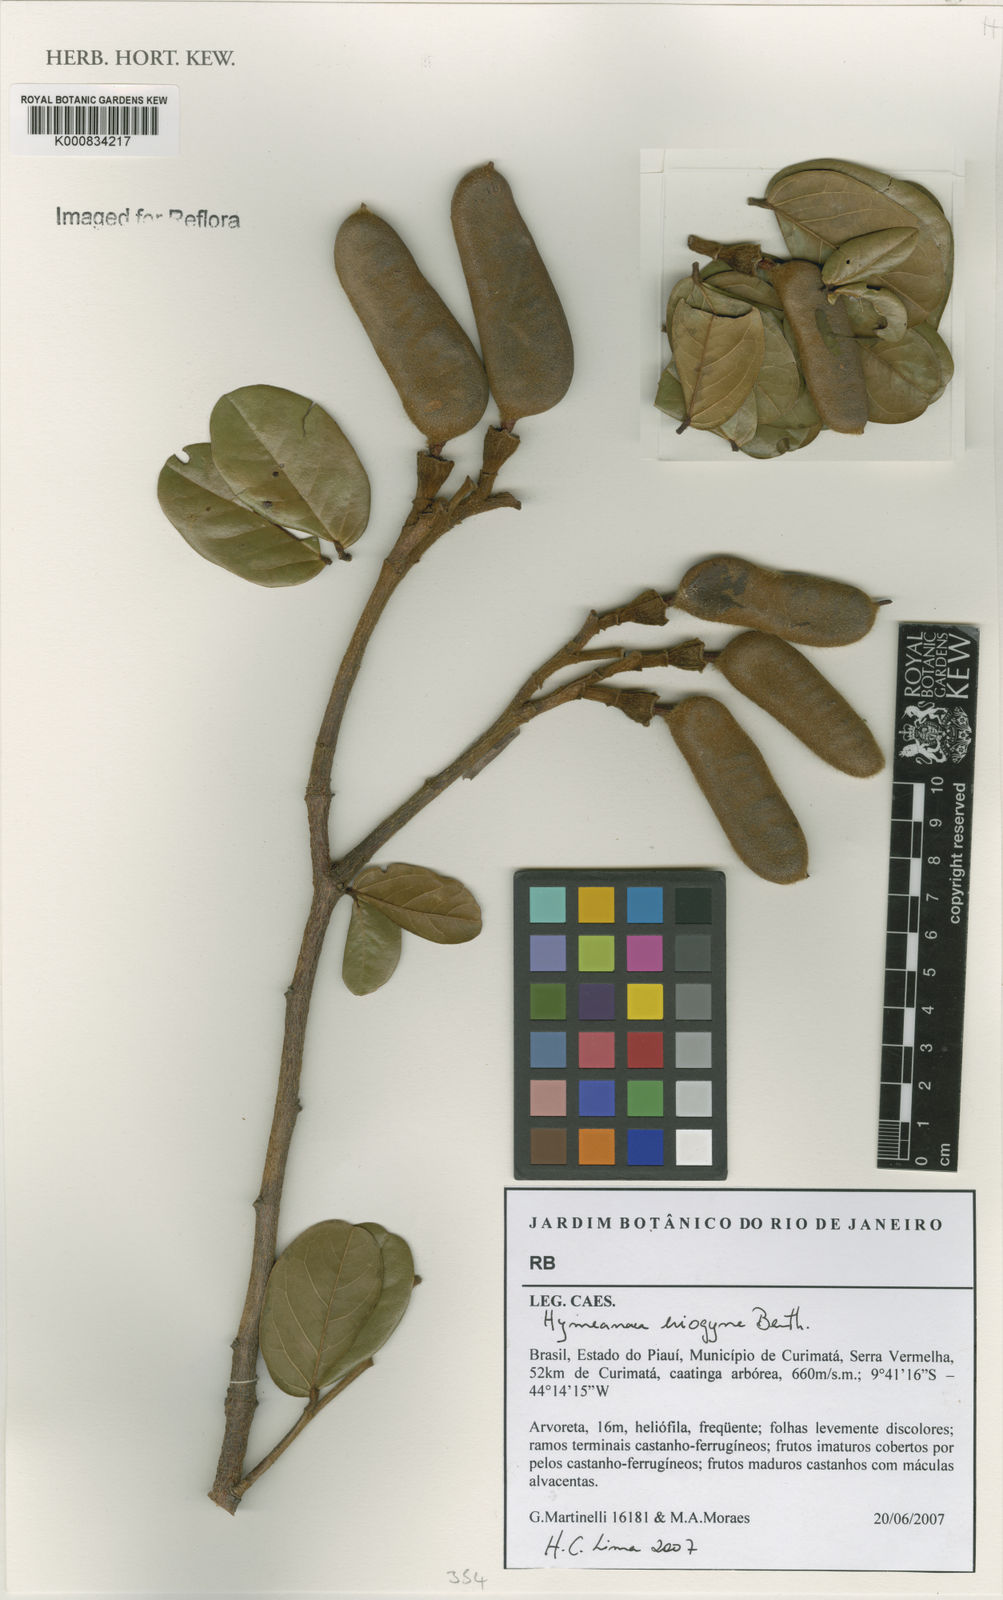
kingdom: Plantae
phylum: Tracheophyta
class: Magnoliopsida
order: Fabales
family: Fabaceae
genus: Hymenaea
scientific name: Hymenaea eriogyne
